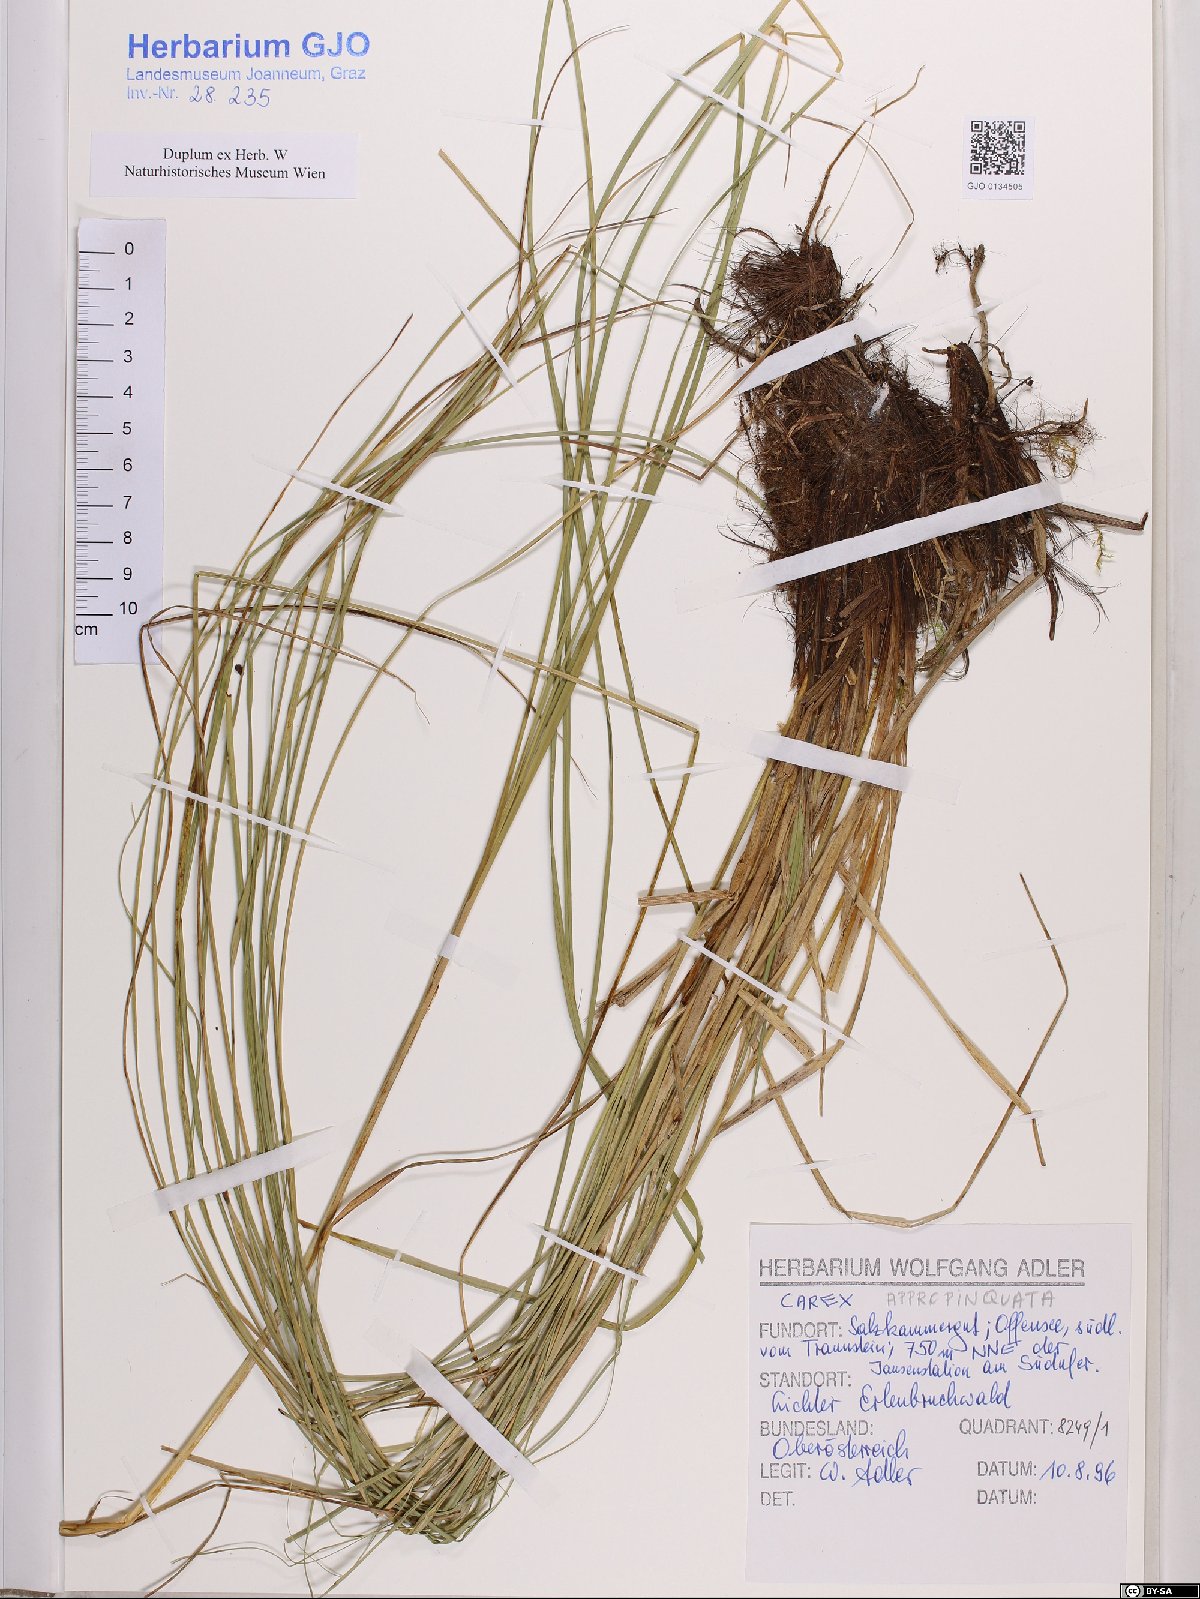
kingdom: Plantae
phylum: Tracheophyta
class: Liliopsida
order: Poales
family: Cyperaceae
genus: Carex
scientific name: Carex appropinquata
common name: Fibrous tussock-sedge
